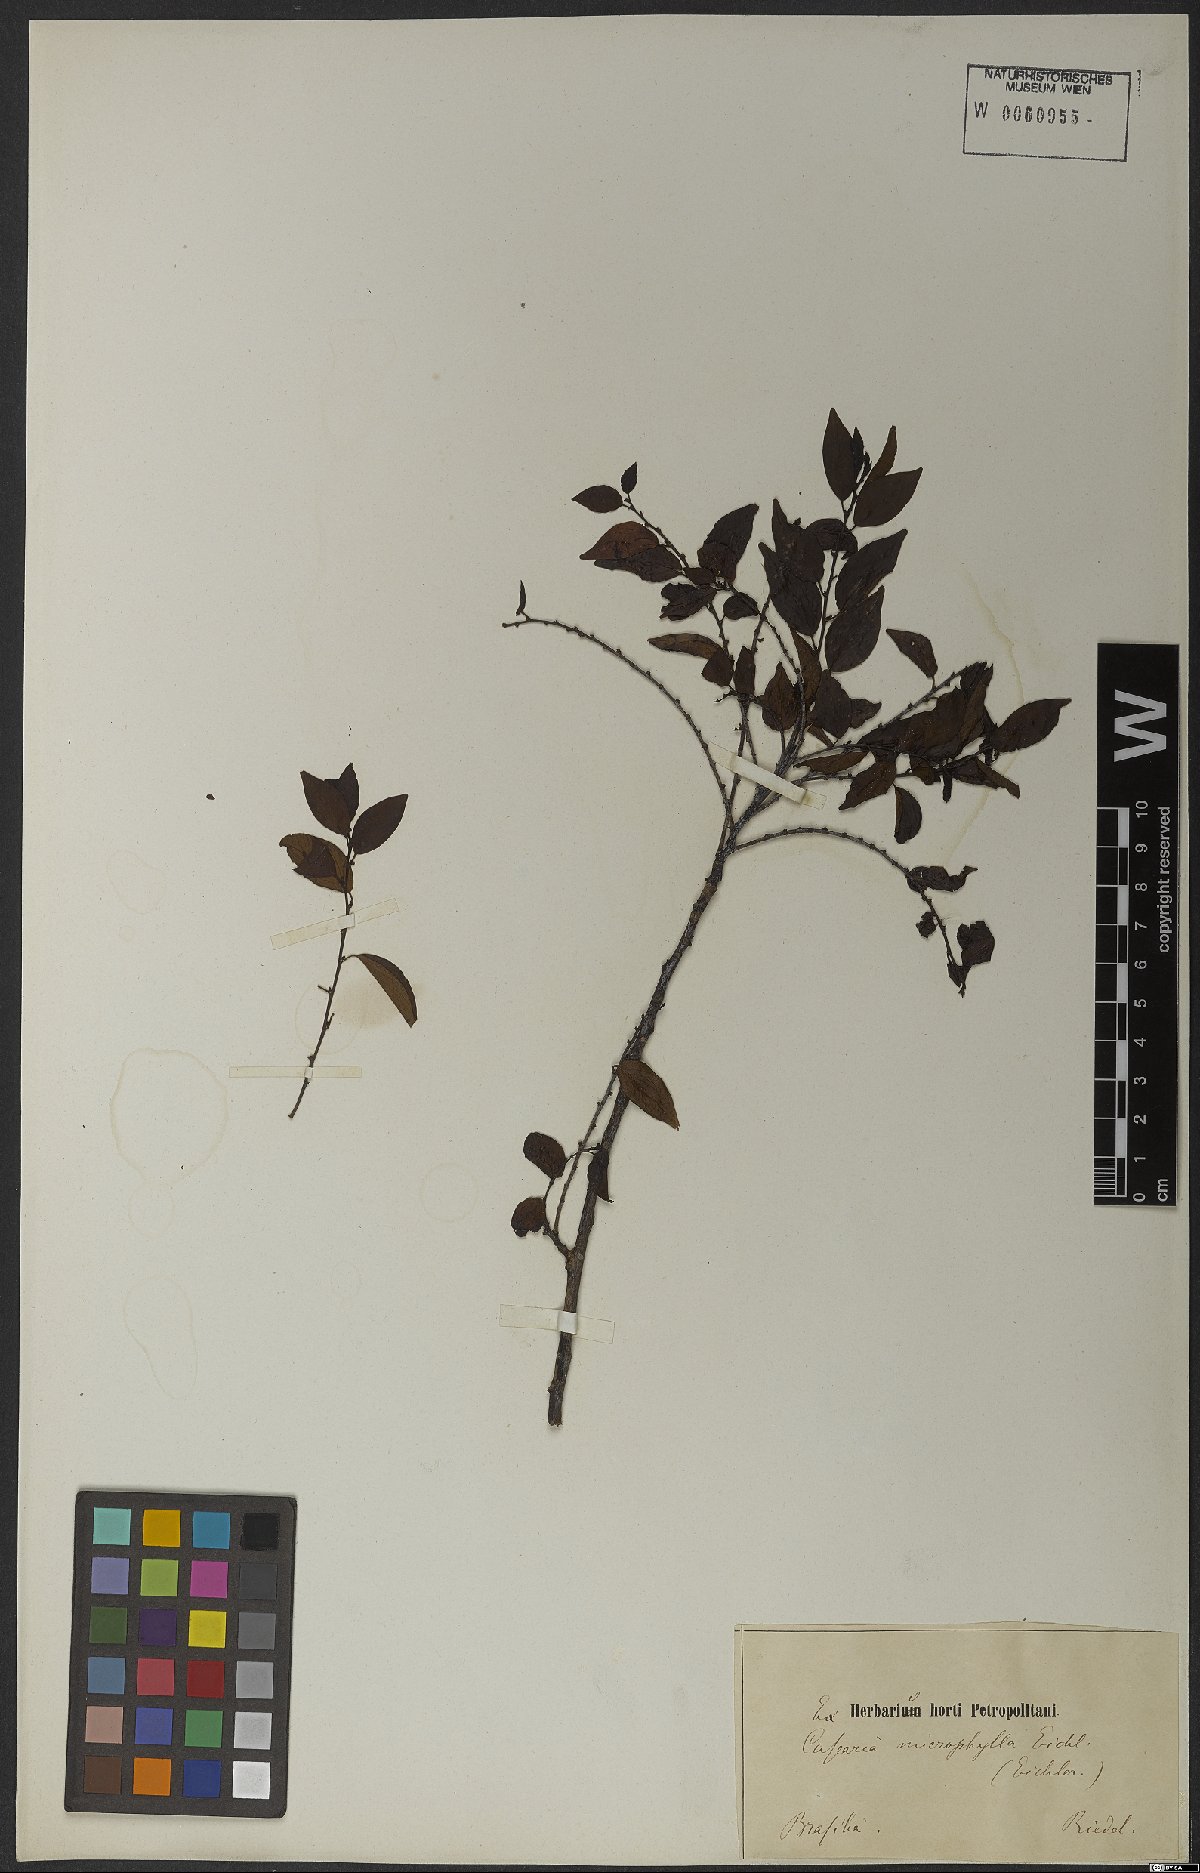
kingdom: Plantae
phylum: Tracheophyta
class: Magnoliopsida
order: Malpighiales
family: Salicaceae
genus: Casearia
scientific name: Casearia aculeata
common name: Cockspur
